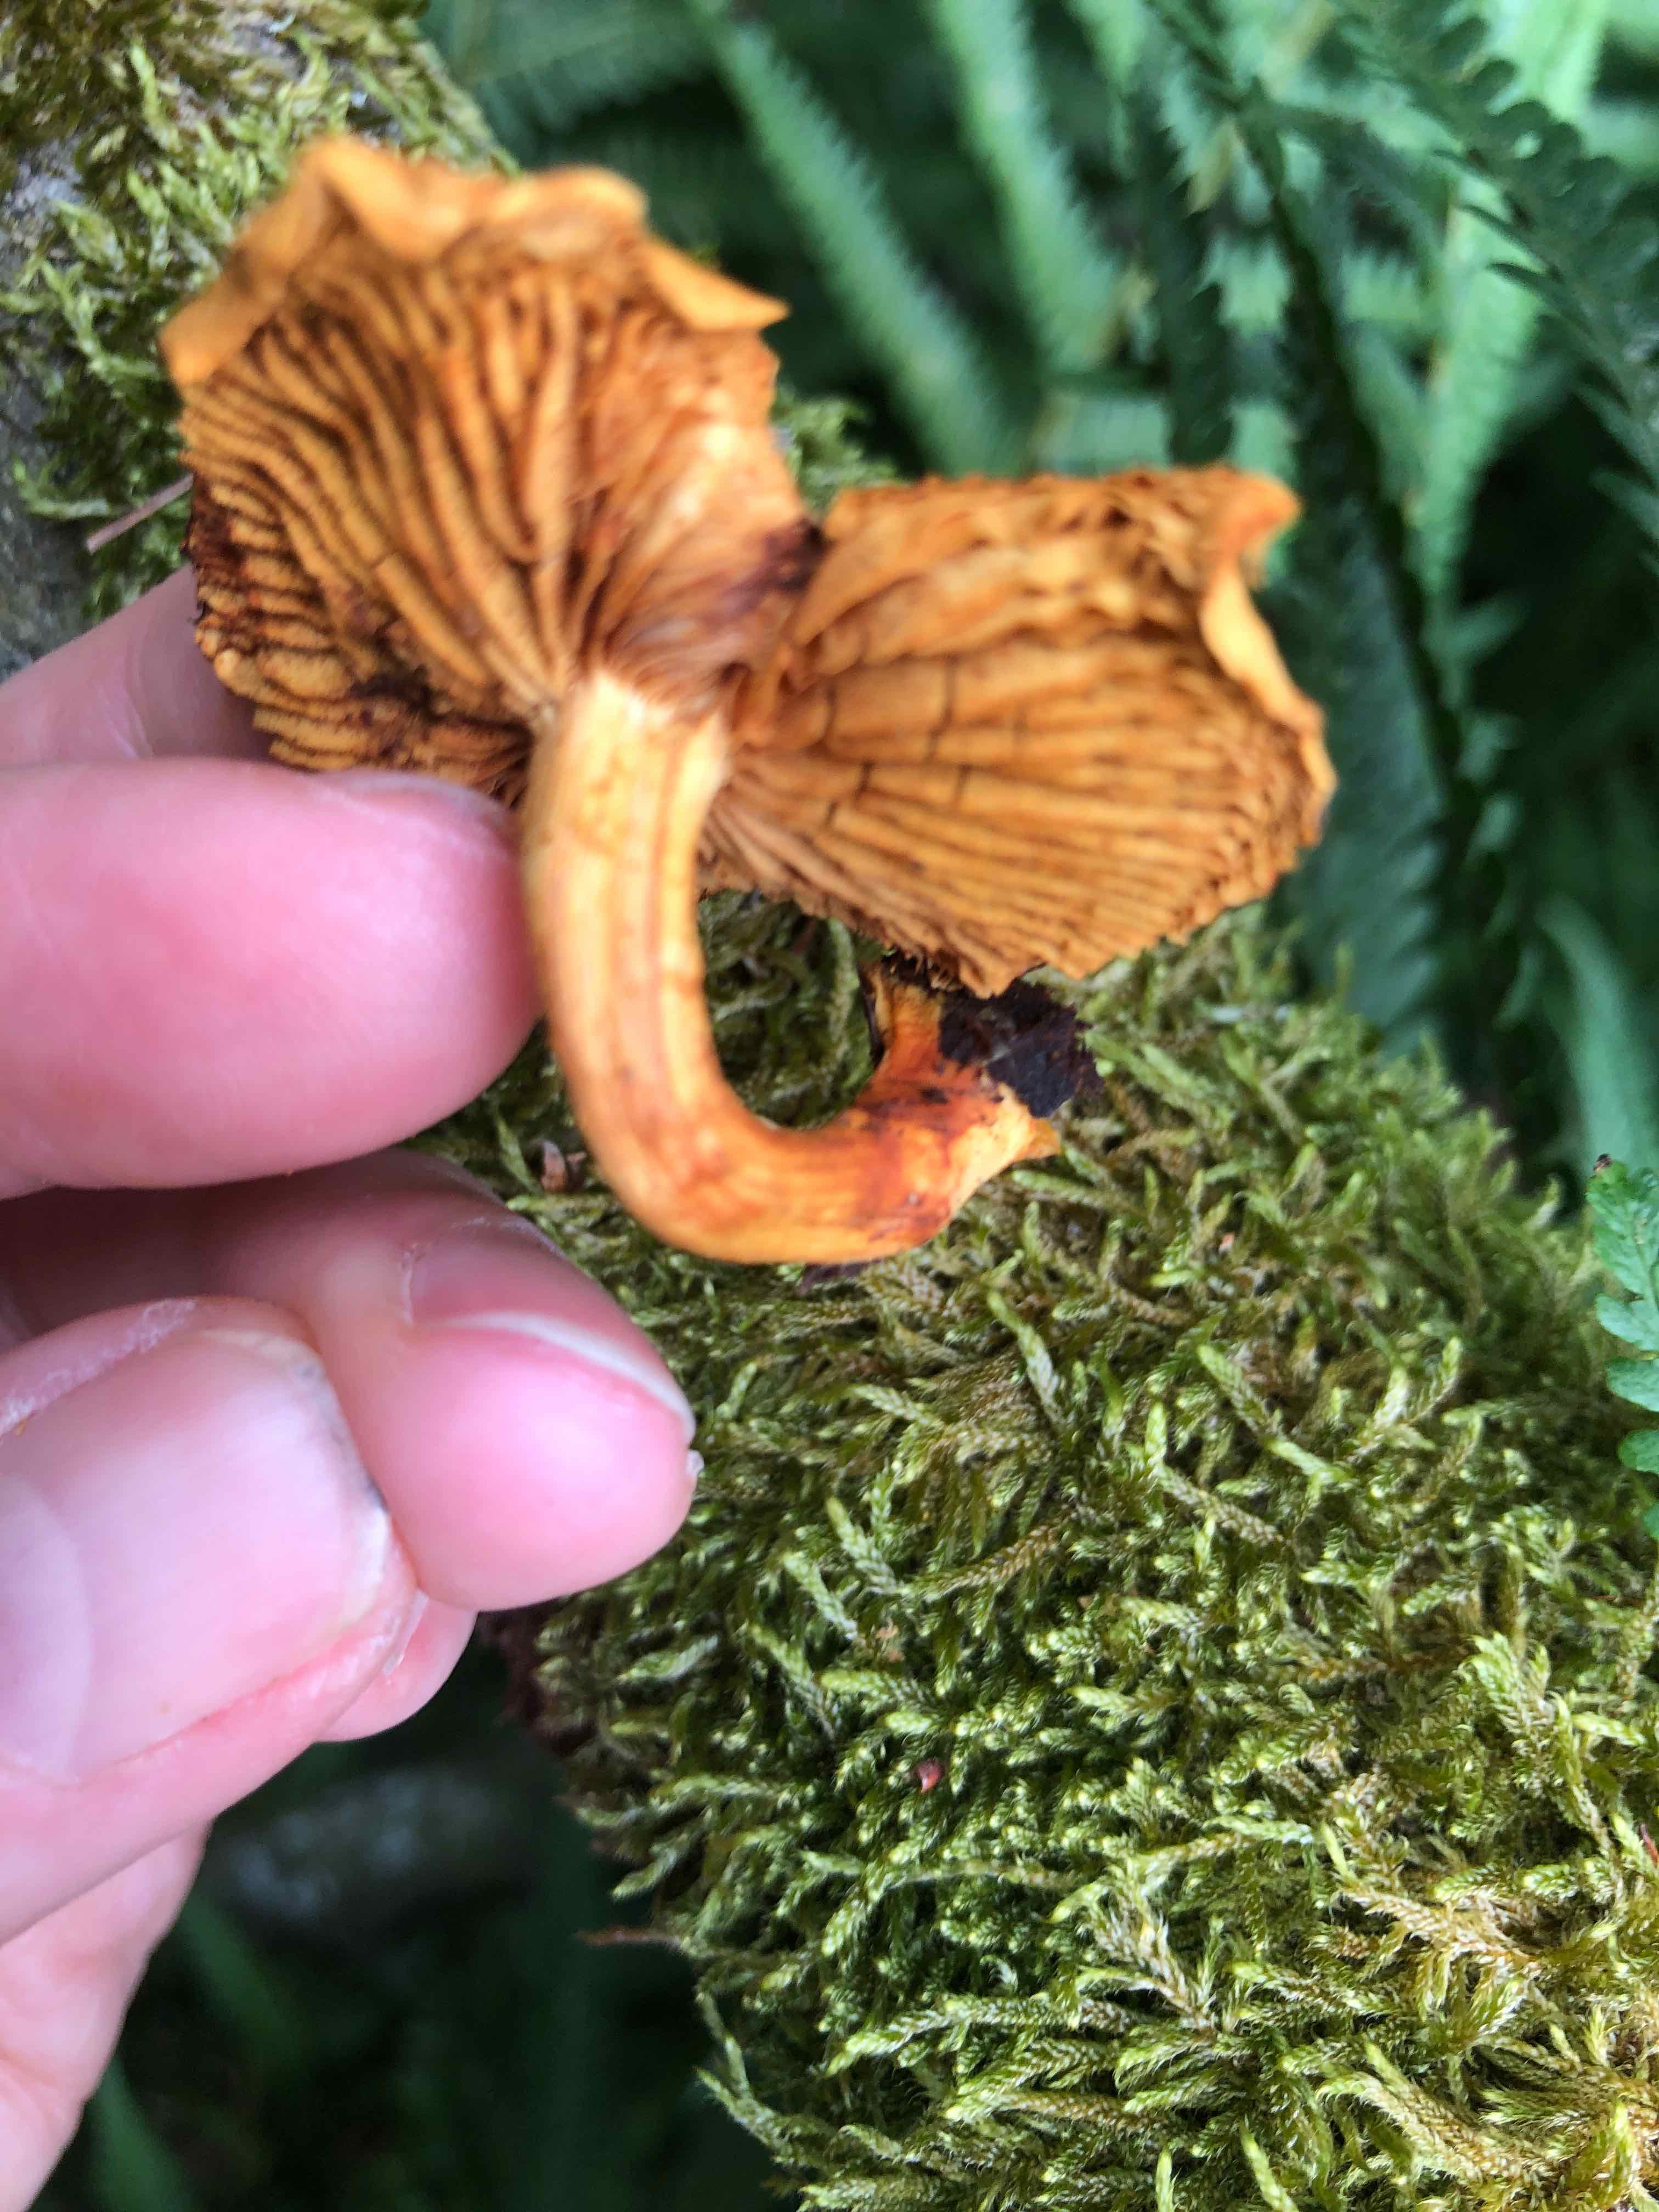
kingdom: Fungi
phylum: Basidiomycota
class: Agaricomycetes
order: Agaricales
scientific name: Agaricales
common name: champignonordenen
